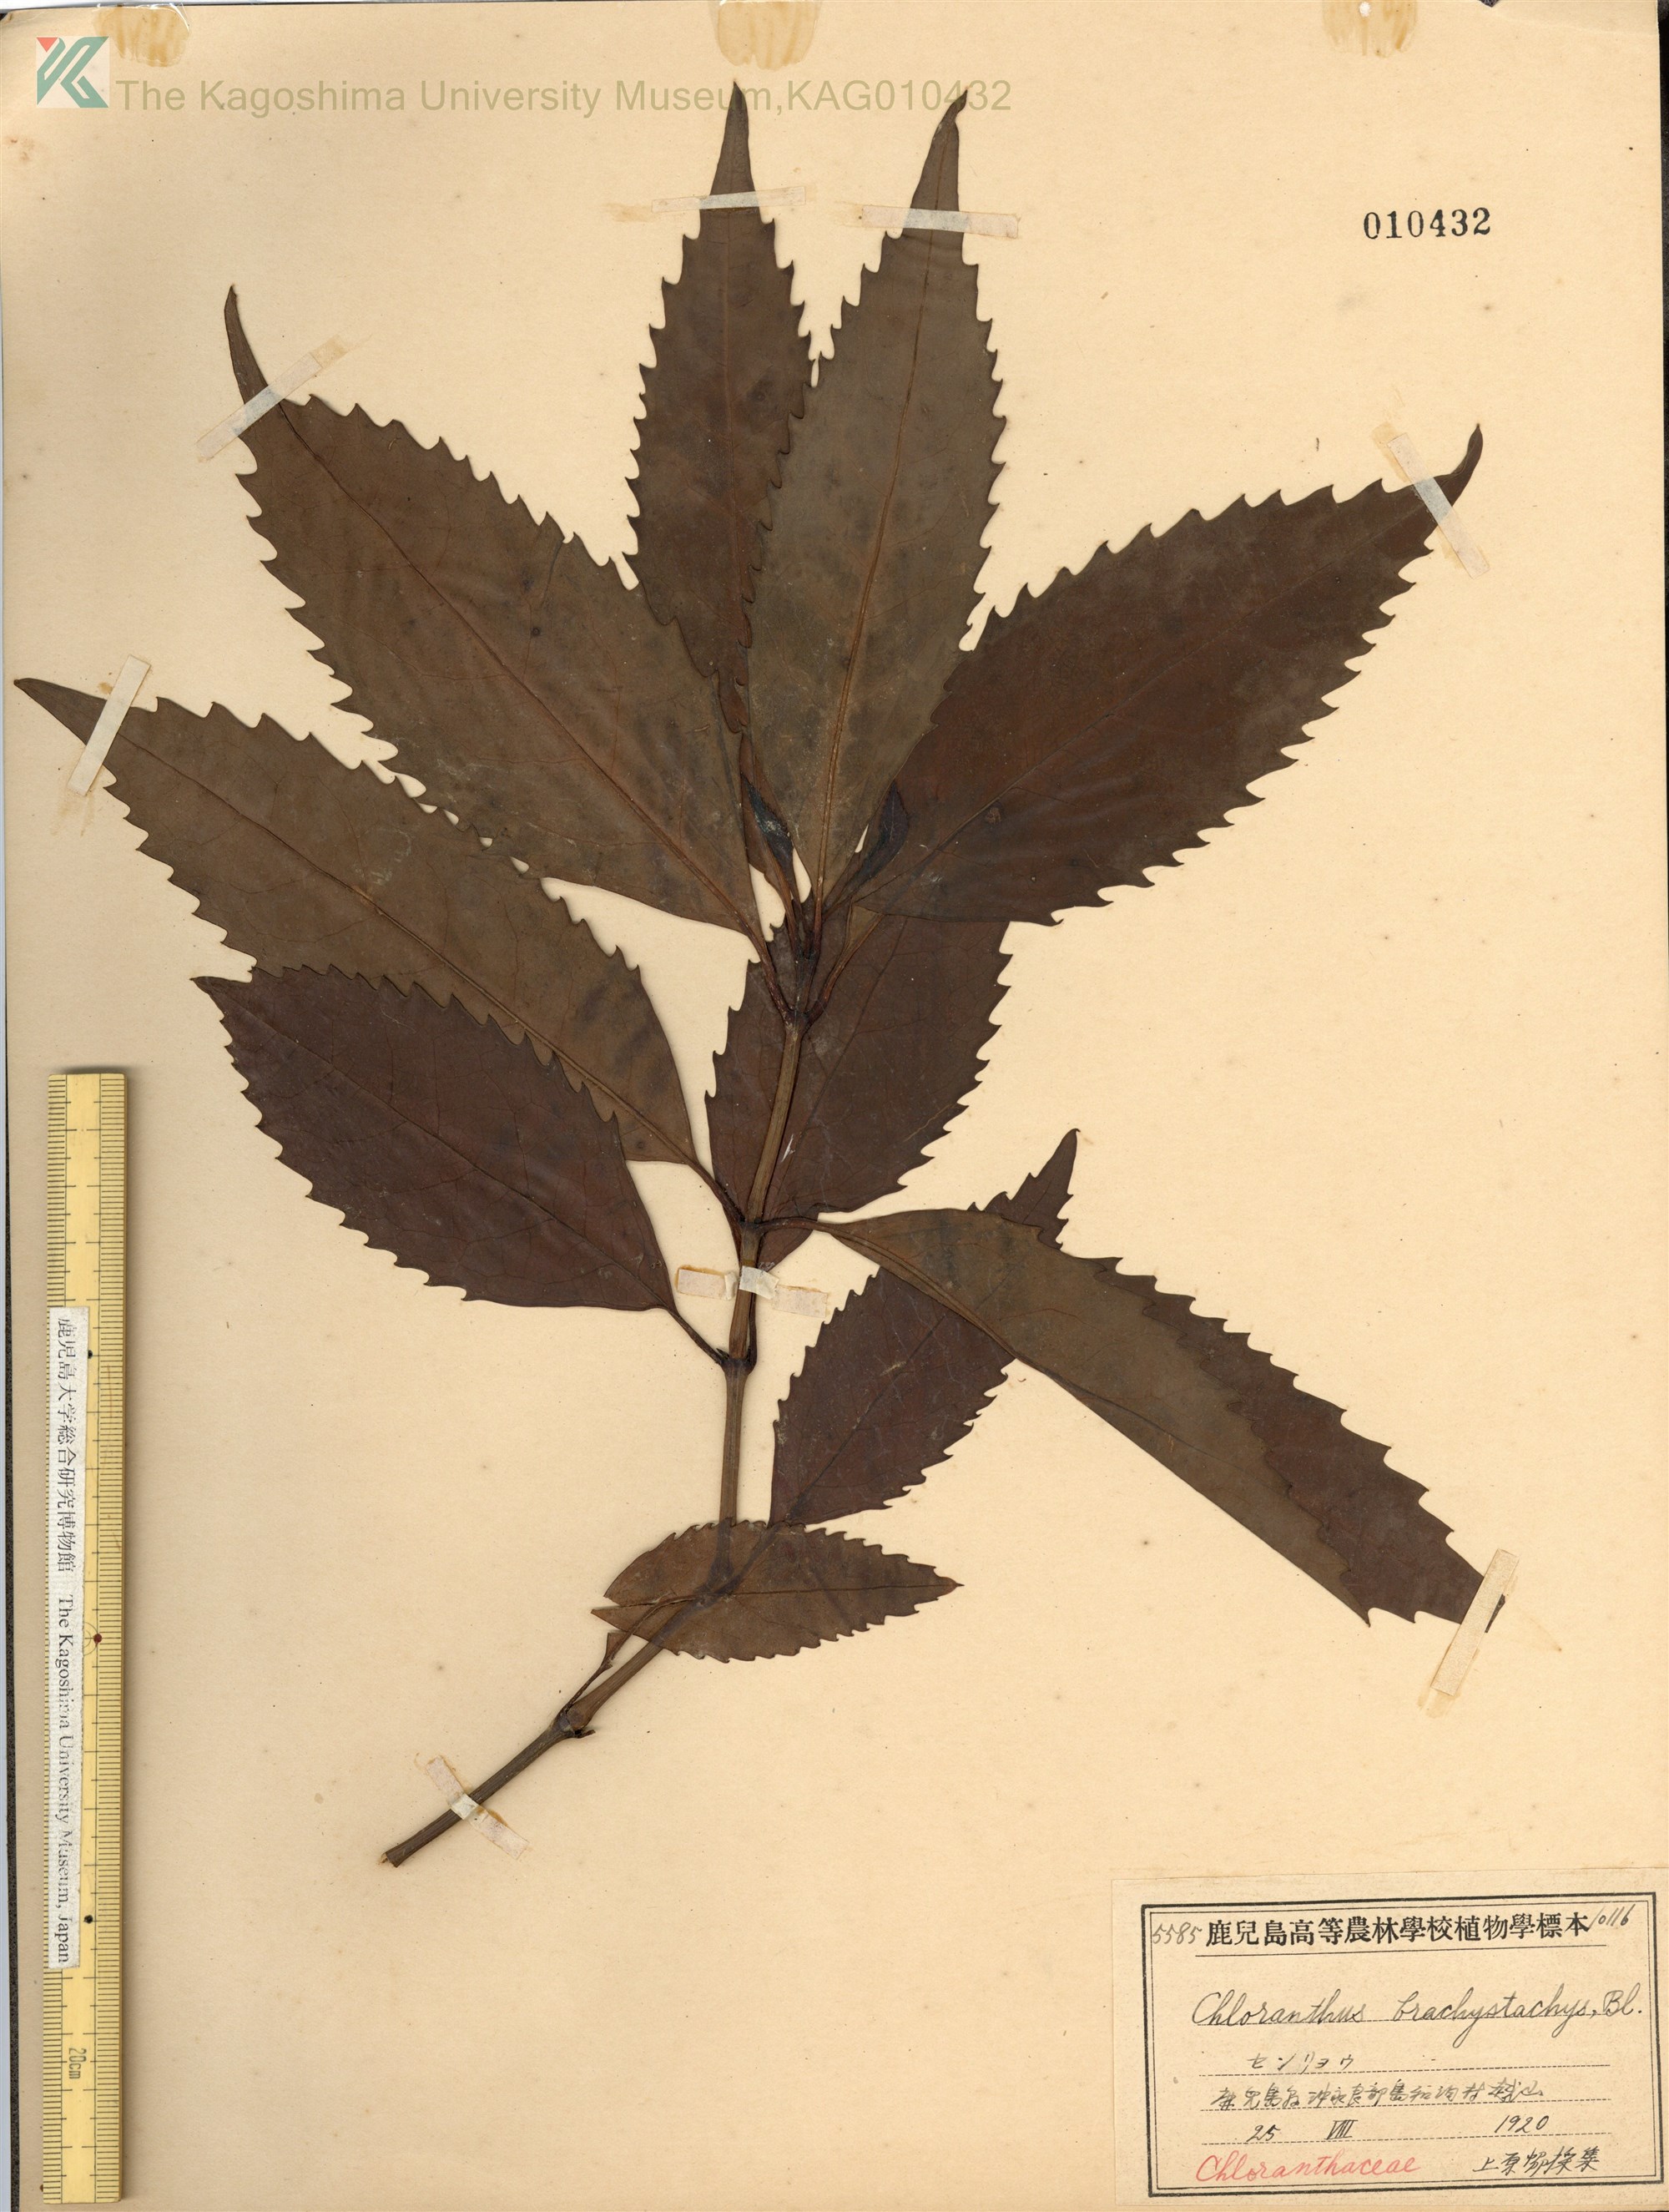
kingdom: Plantae
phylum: Tracheophyta
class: Magnoliopsida
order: Chloranthales
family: Chloranthaceae
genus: Sarcandra
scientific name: Sarcandra glabra
